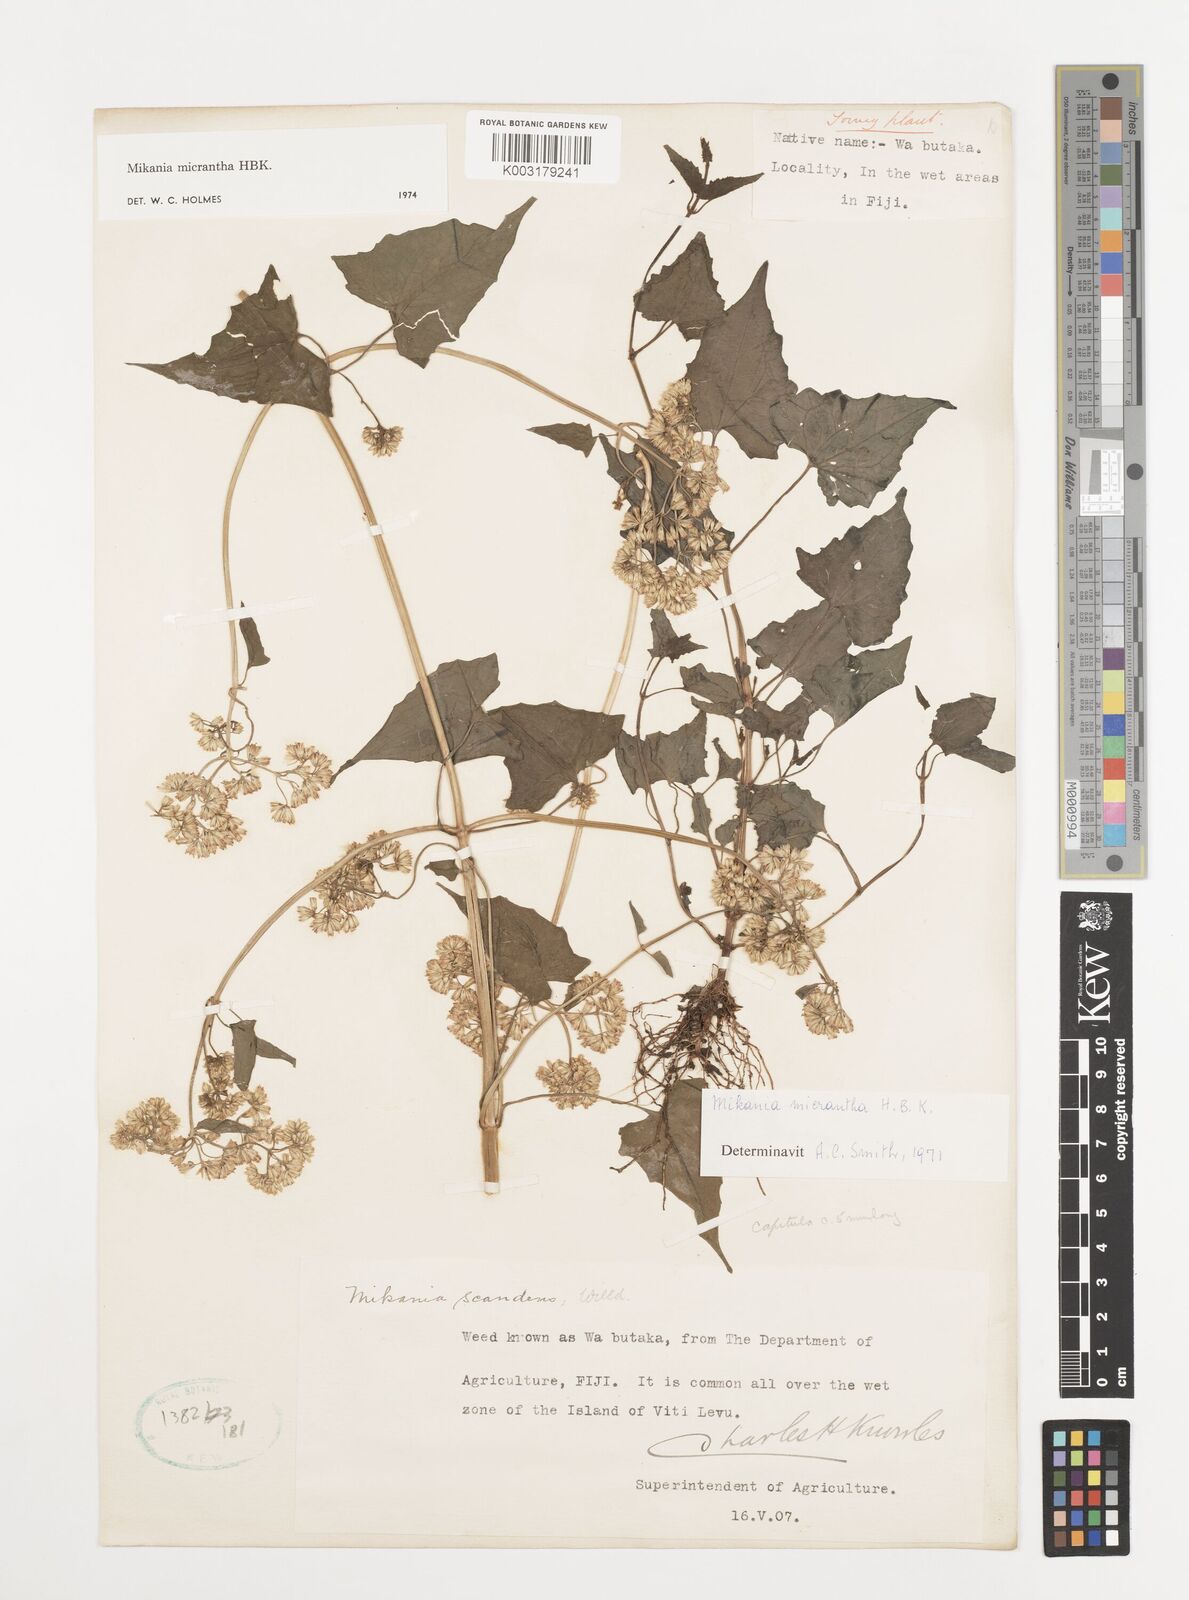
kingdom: Plantae
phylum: Tracheophyta
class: Magnoliopsida
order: Asterales
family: Asteraceae
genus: Mikania
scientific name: Mikania micrantha
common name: Mile-a-minute
